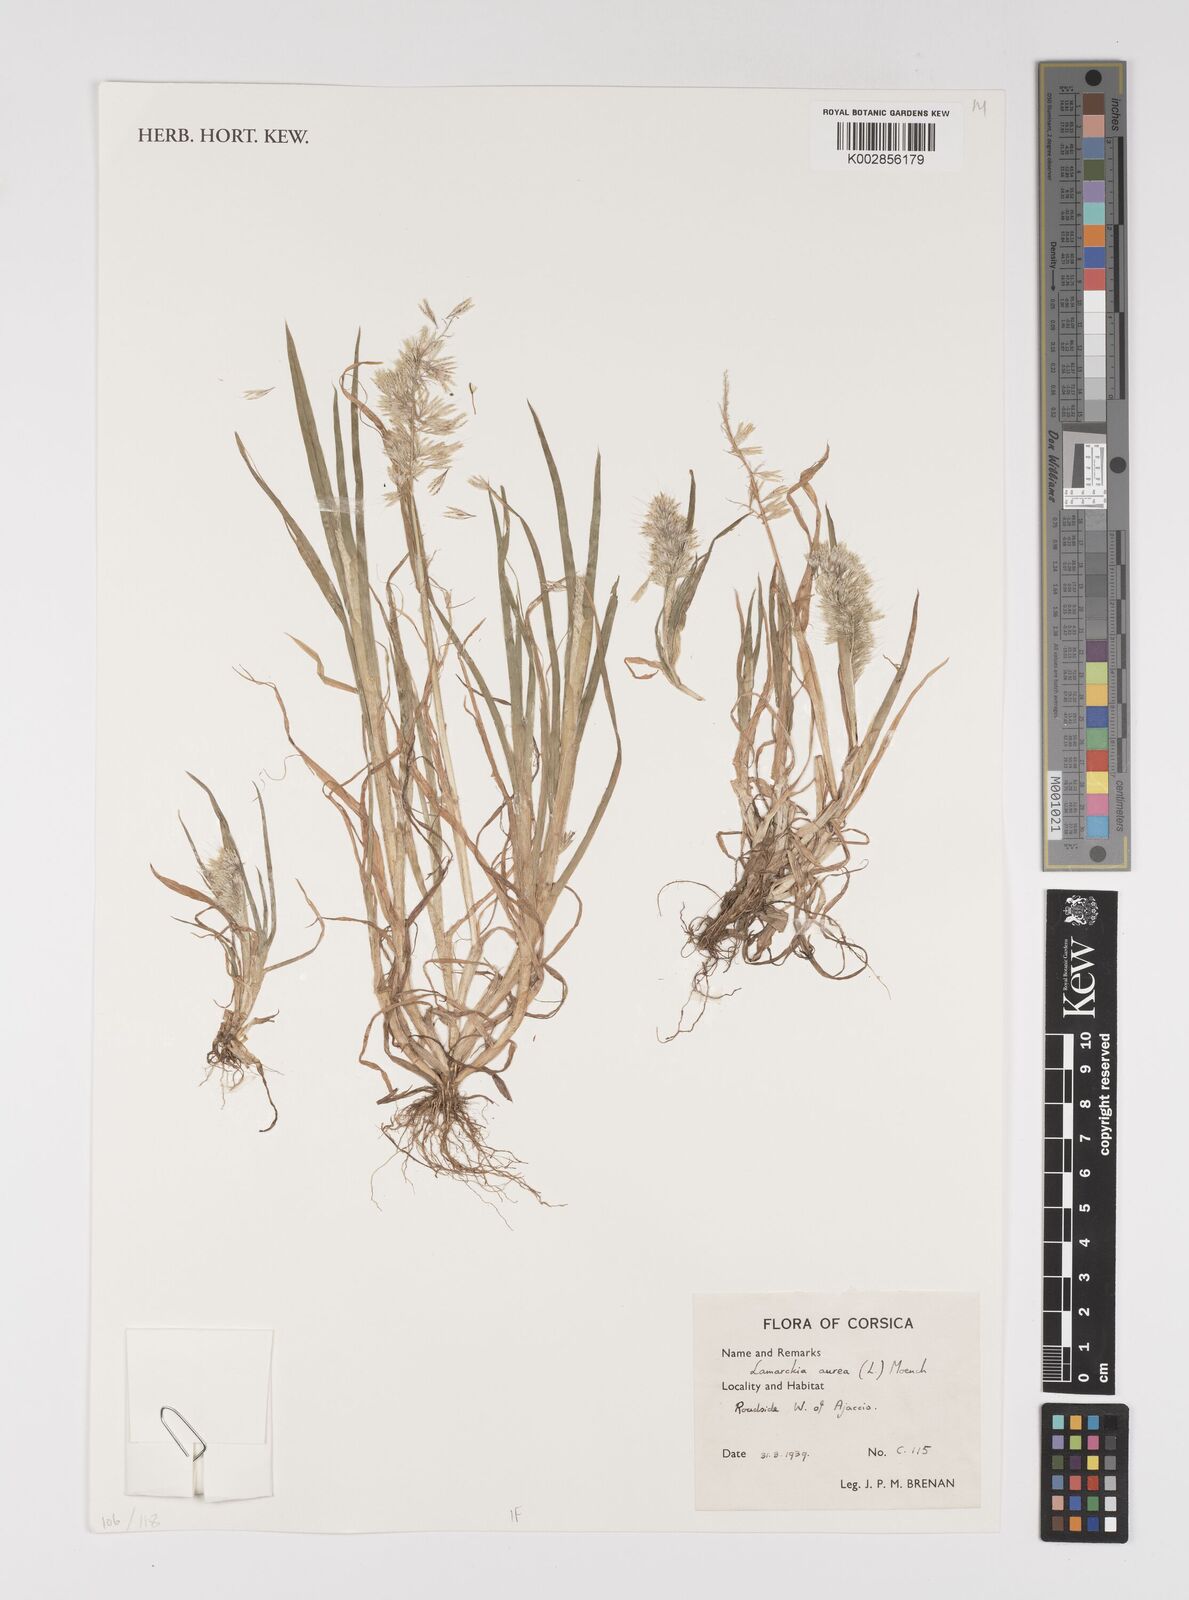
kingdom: Plantae
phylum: Tracheophyta
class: Liliopsida
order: Poales
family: Poaceae
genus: Lamarckia
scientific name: Lamarckia aurea
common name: Golden dog's-tail
